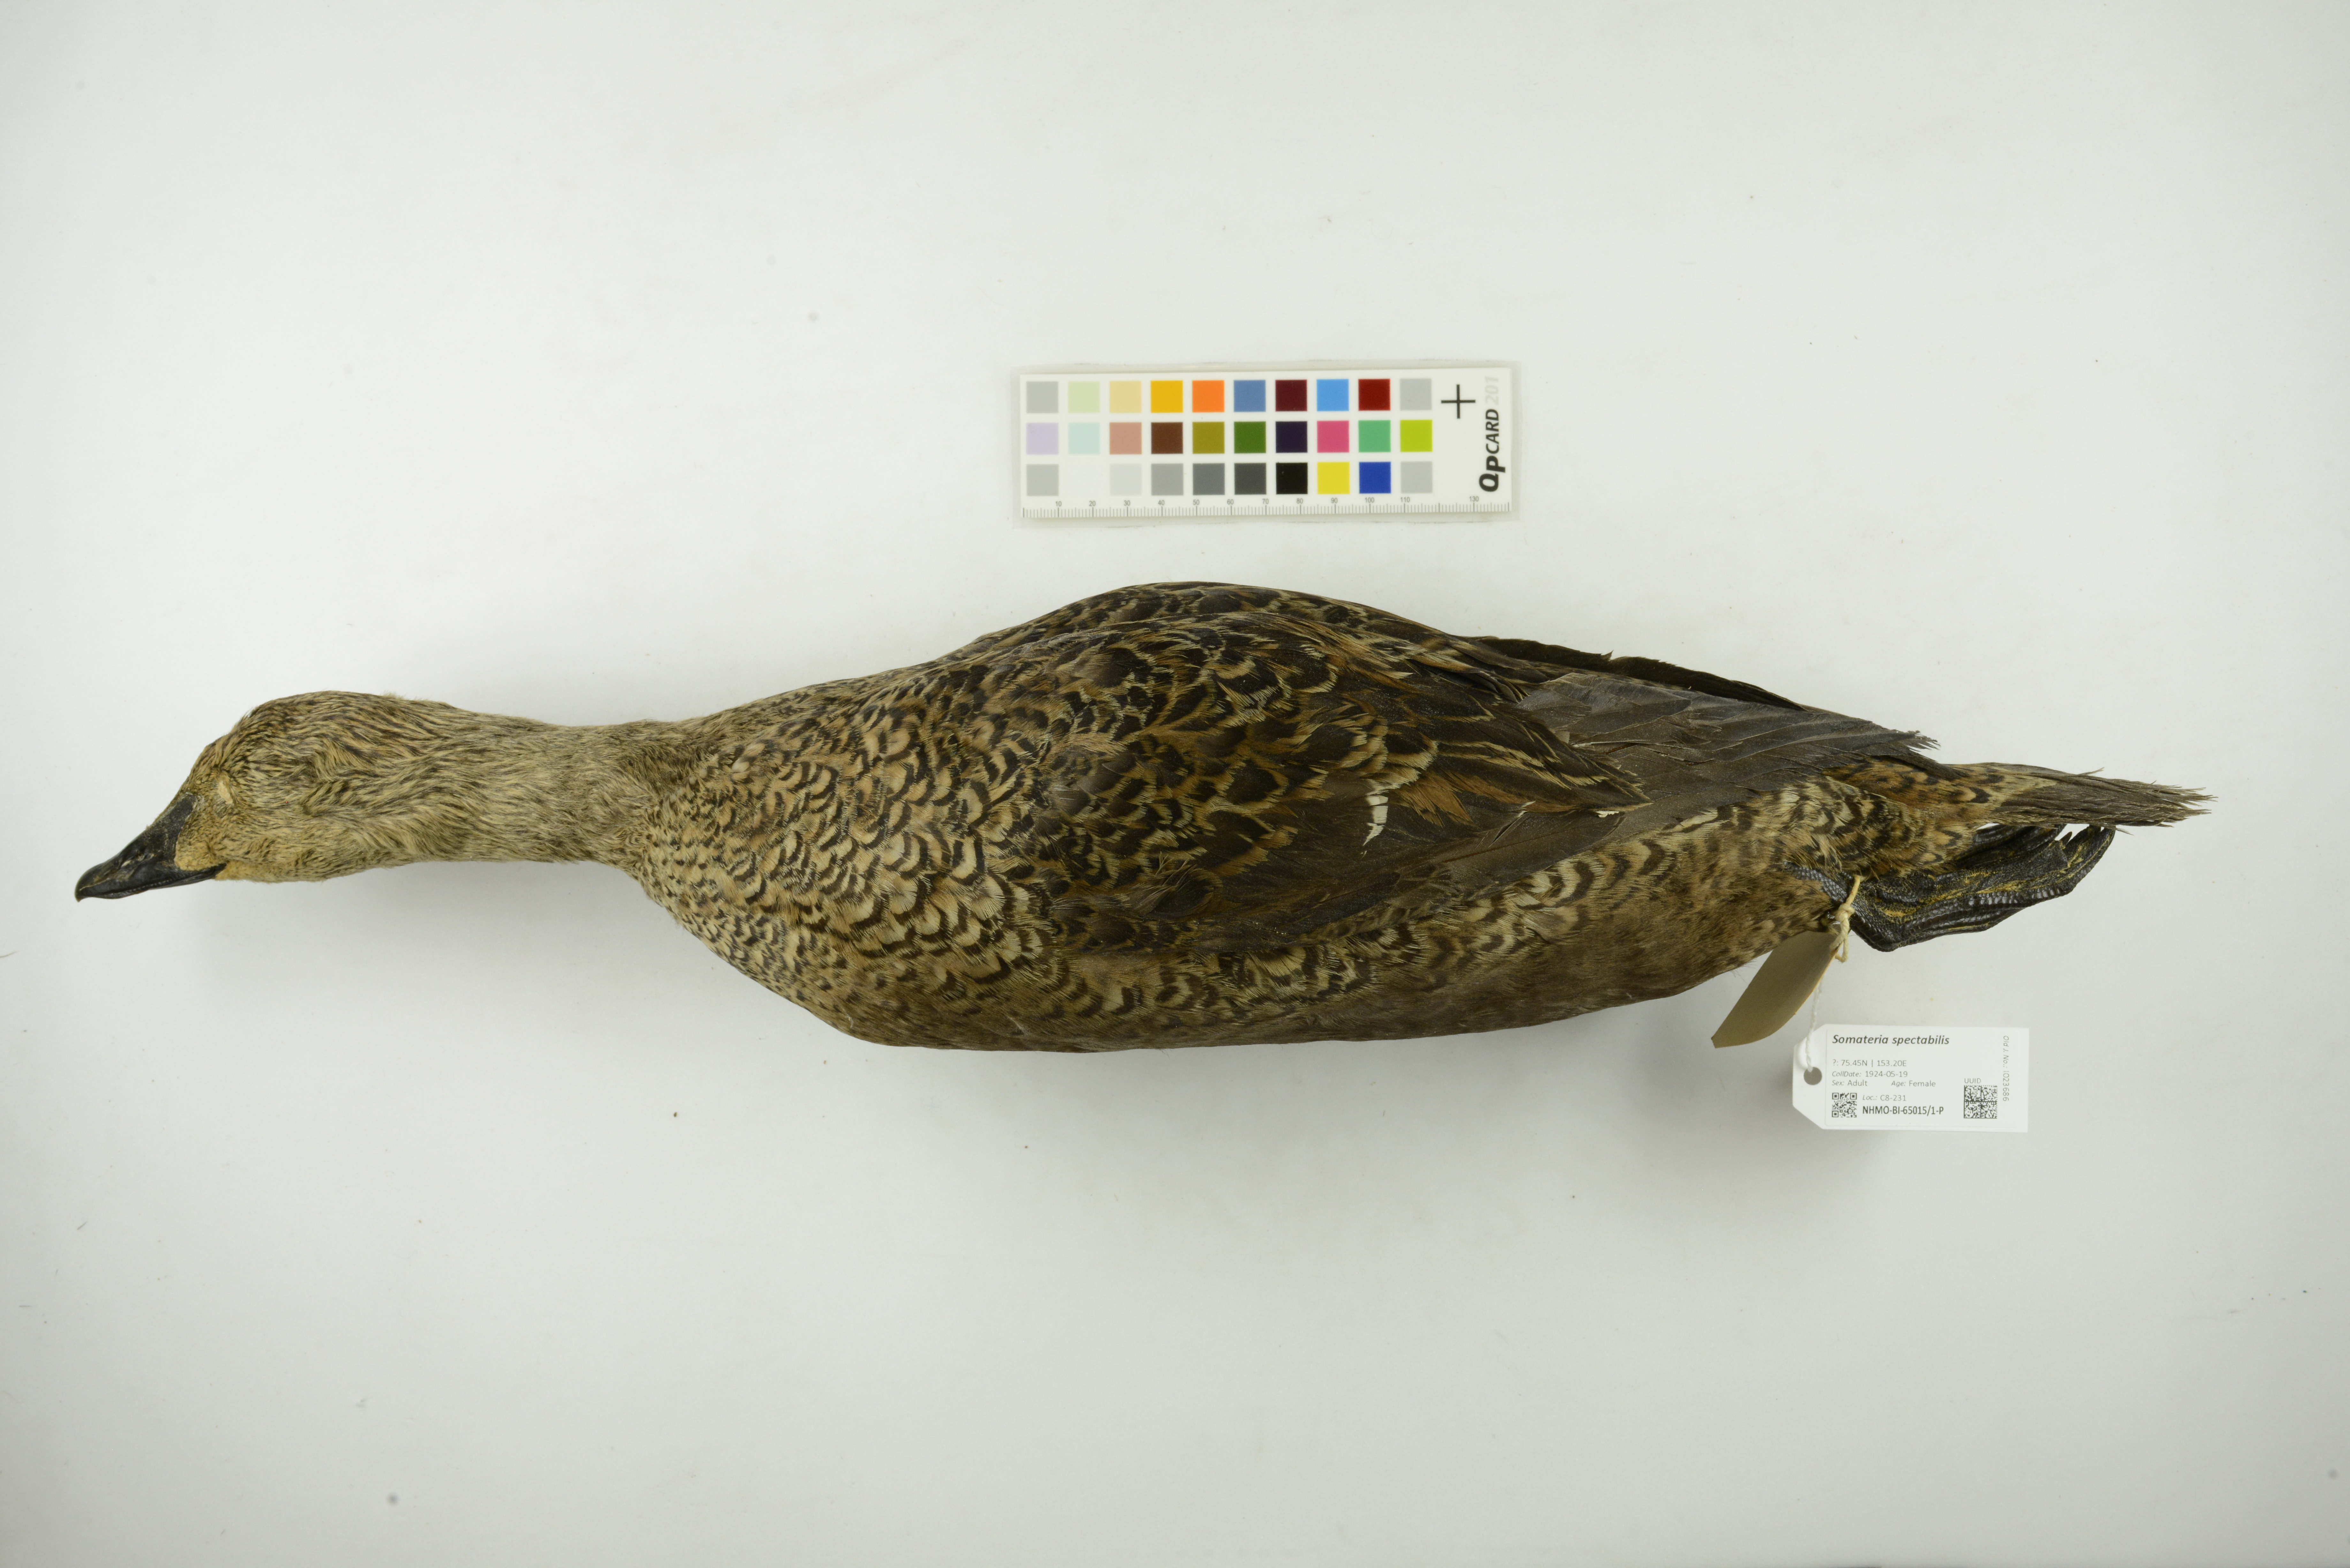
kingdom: Animalia
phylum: Chordata
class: Aves
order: Anseriformes
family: Anatidae
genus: Somateria
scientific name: Somateria spectabilis
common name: King eider
